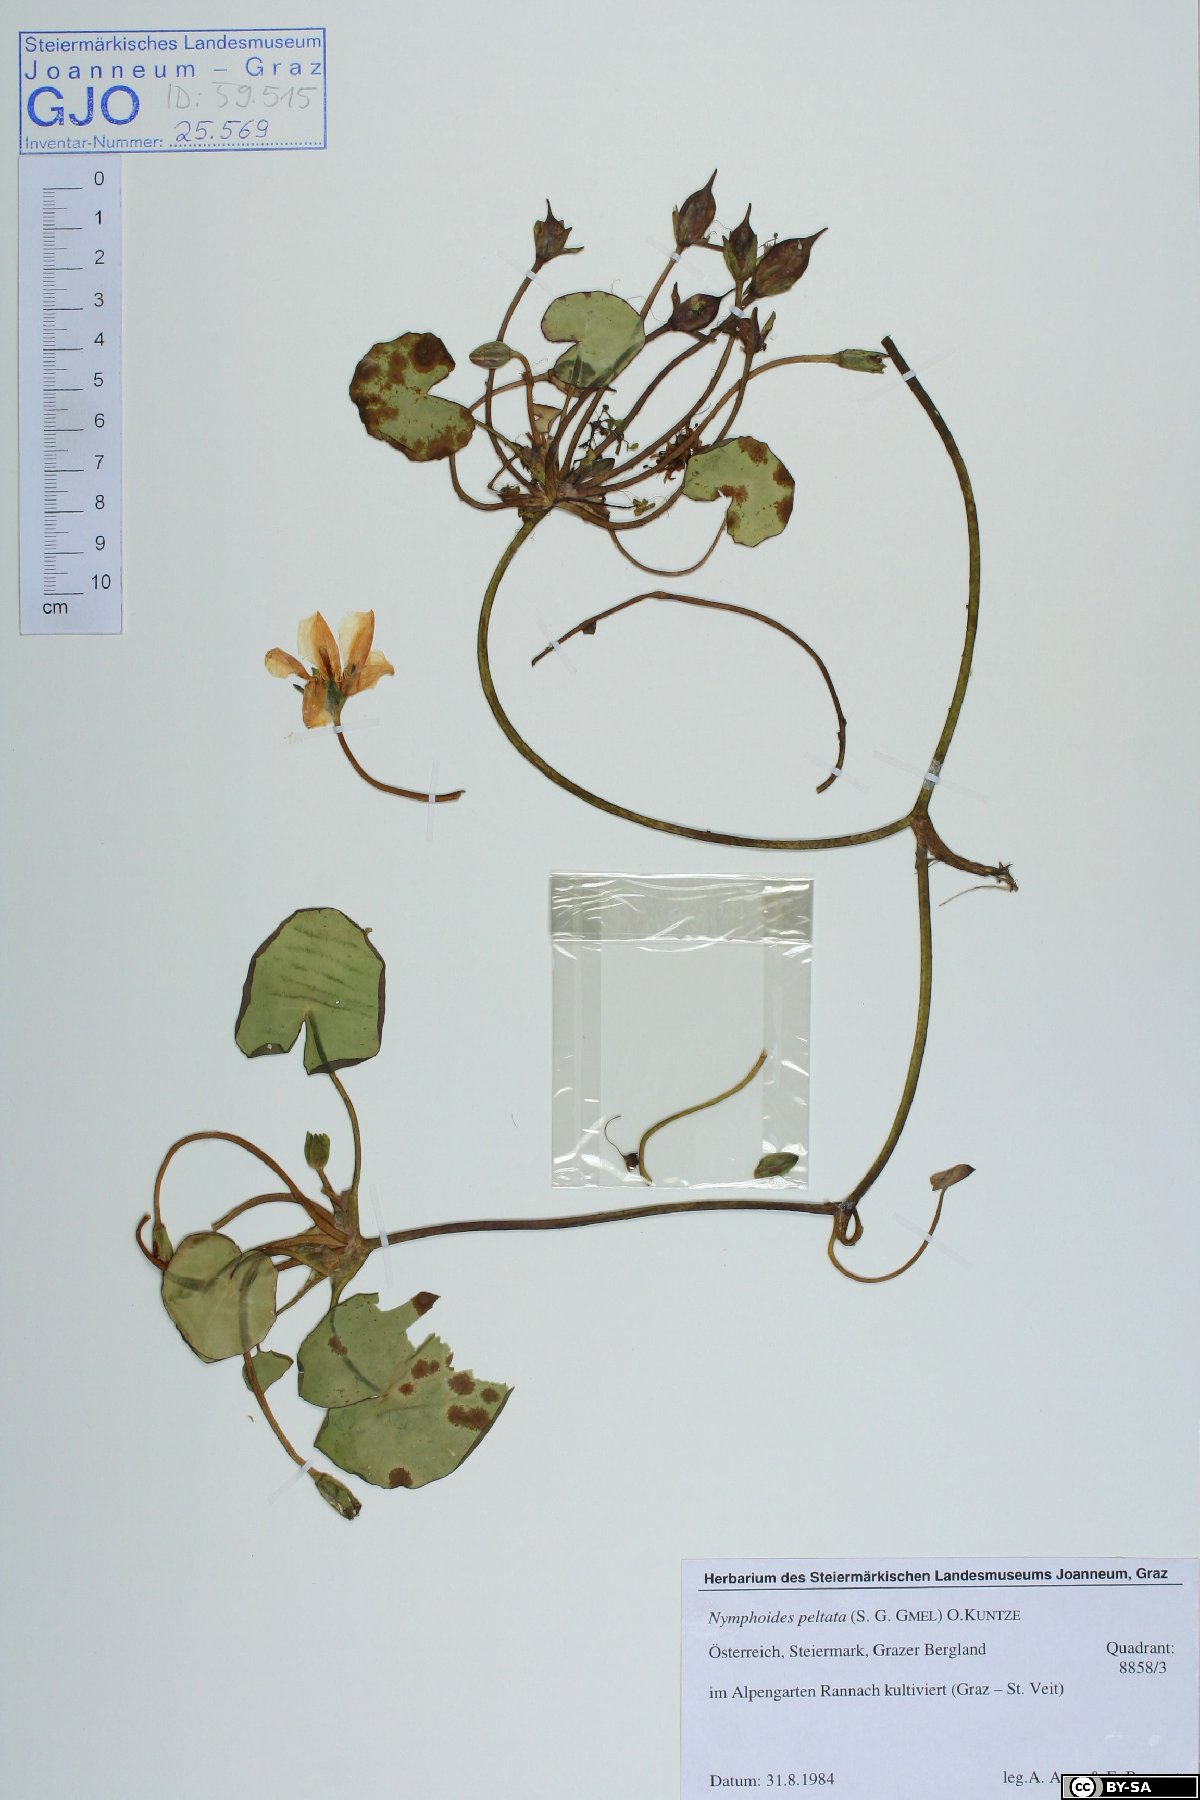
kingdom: Plantae
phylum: Tracheophyta
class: Magnoliopsida
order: Asterales
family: Menyanthaceae
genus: Nymphoides
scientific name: Nymphoides peltata
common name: Fringed water-lily
